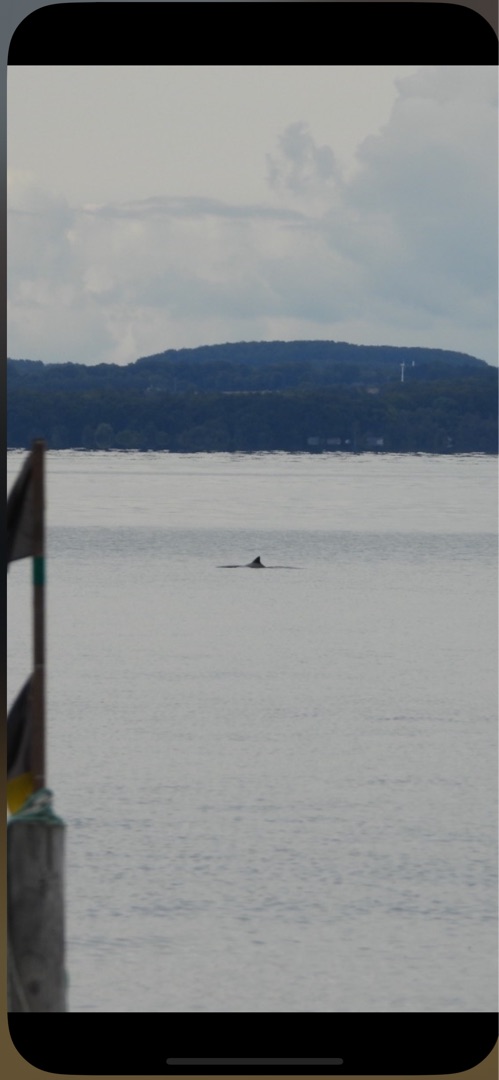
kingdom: Animalia
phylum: Chordata
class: Mammalia
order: Cetacea
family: Phocoenidae
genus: Phocoena
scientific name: Phocoena phocoena
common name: Marsvin
